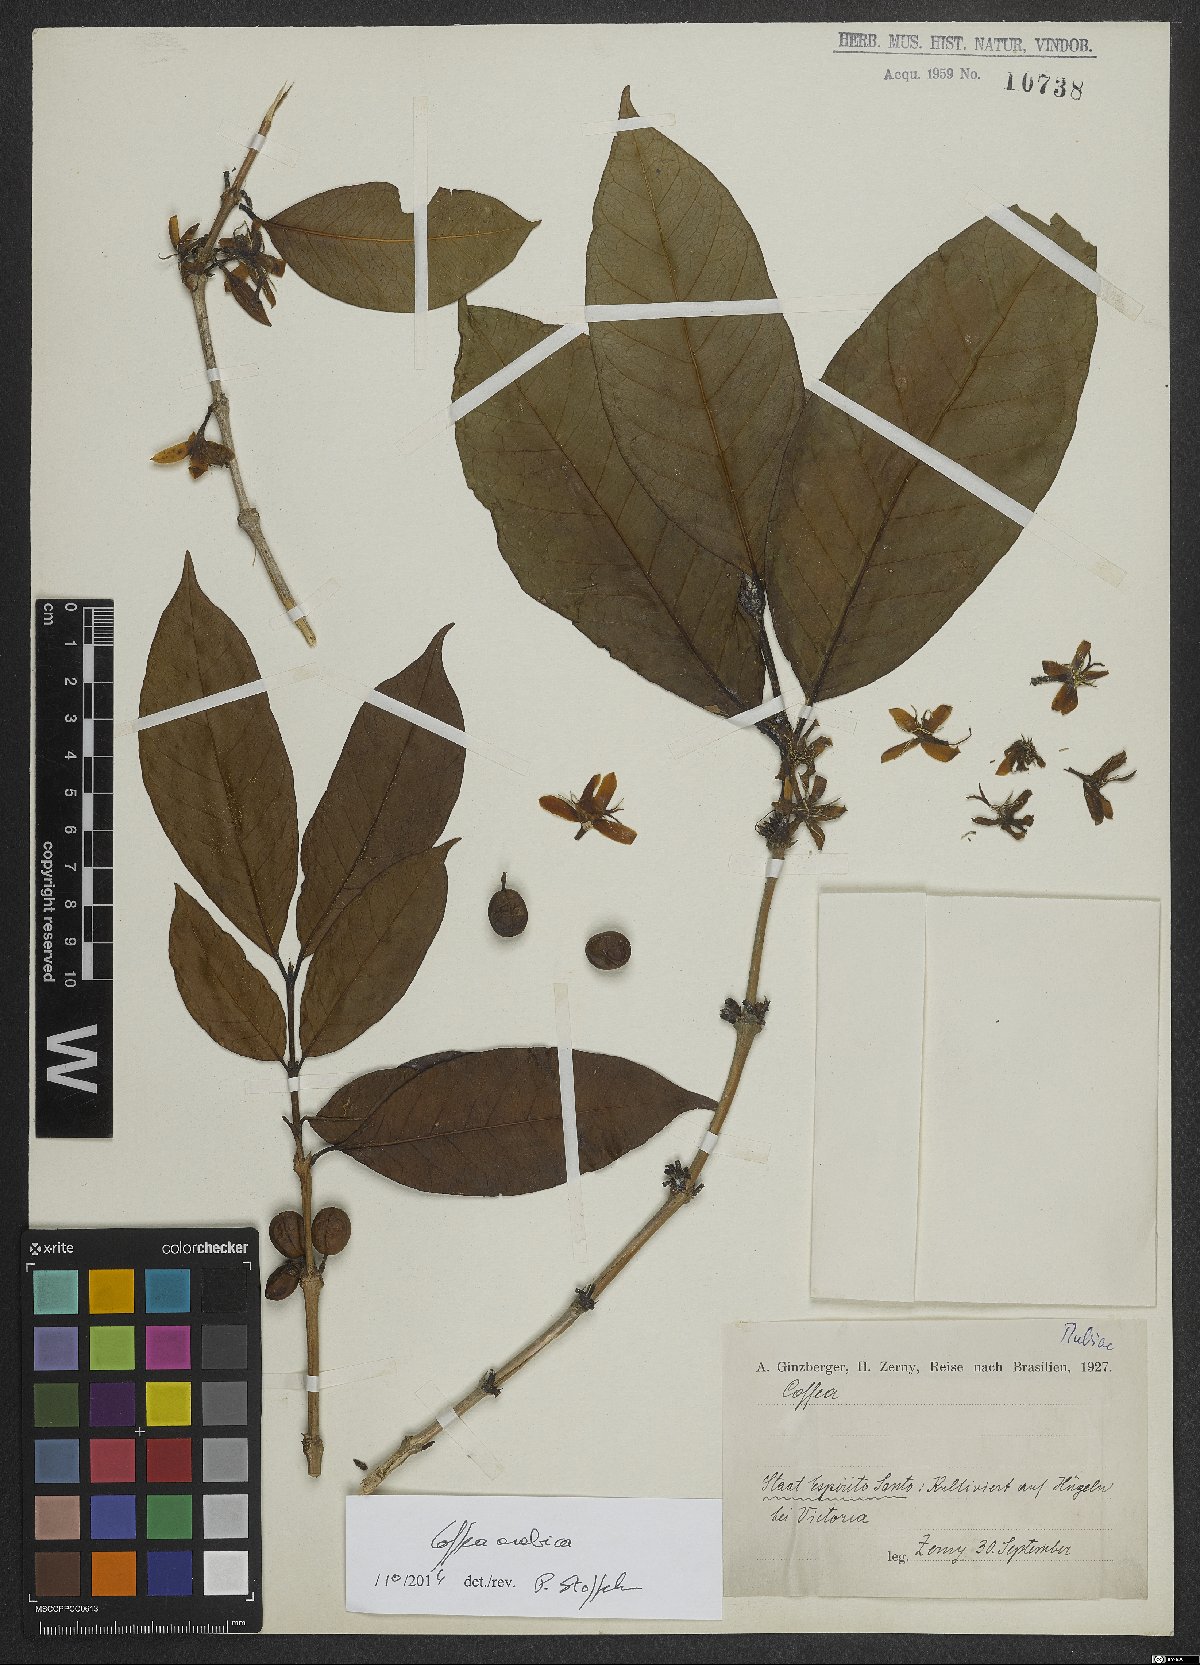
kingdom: Plantae
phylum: Tracheophyta
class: Magnoliopsida
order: Gentianales
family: Rubiaceae
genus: Coffea
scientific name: Coffea arabica
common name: Coffee
